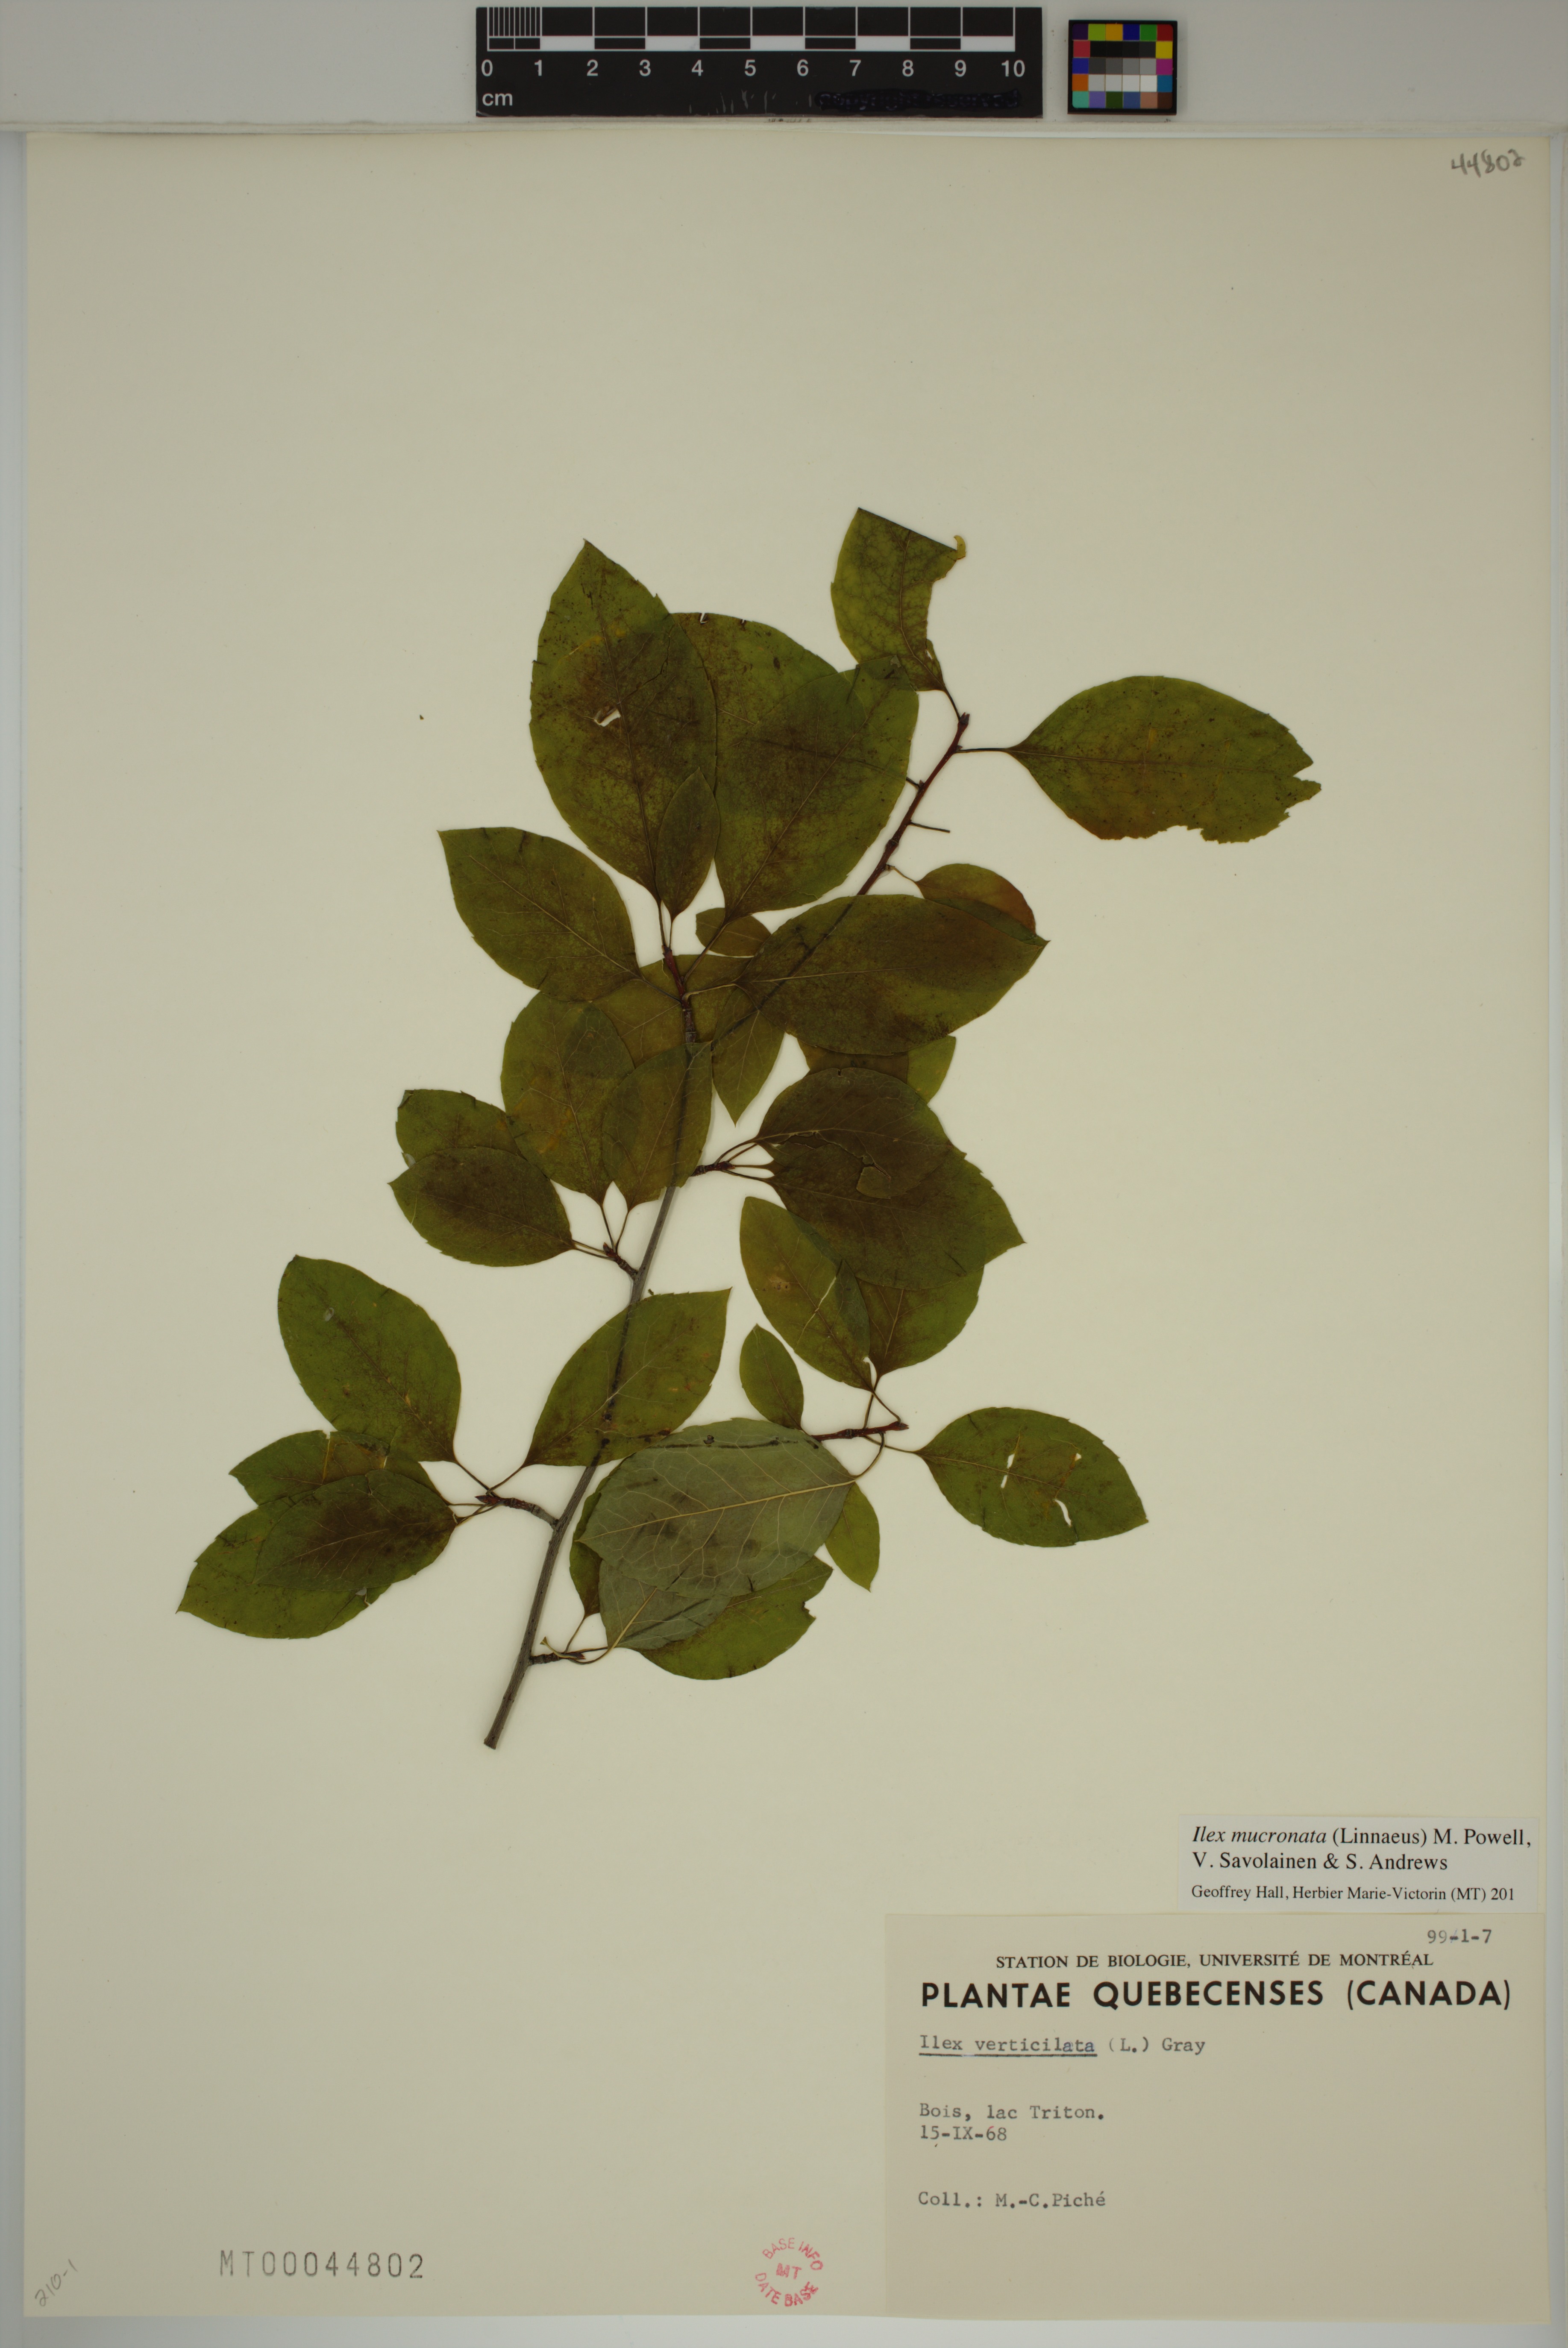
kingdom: Plantae
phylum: Tracheophyta
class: Magnoliopsida
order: Aquifoliales
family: Aquifoliaceae
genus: Ilex
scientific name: Ilex mucronata
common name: Catberry
